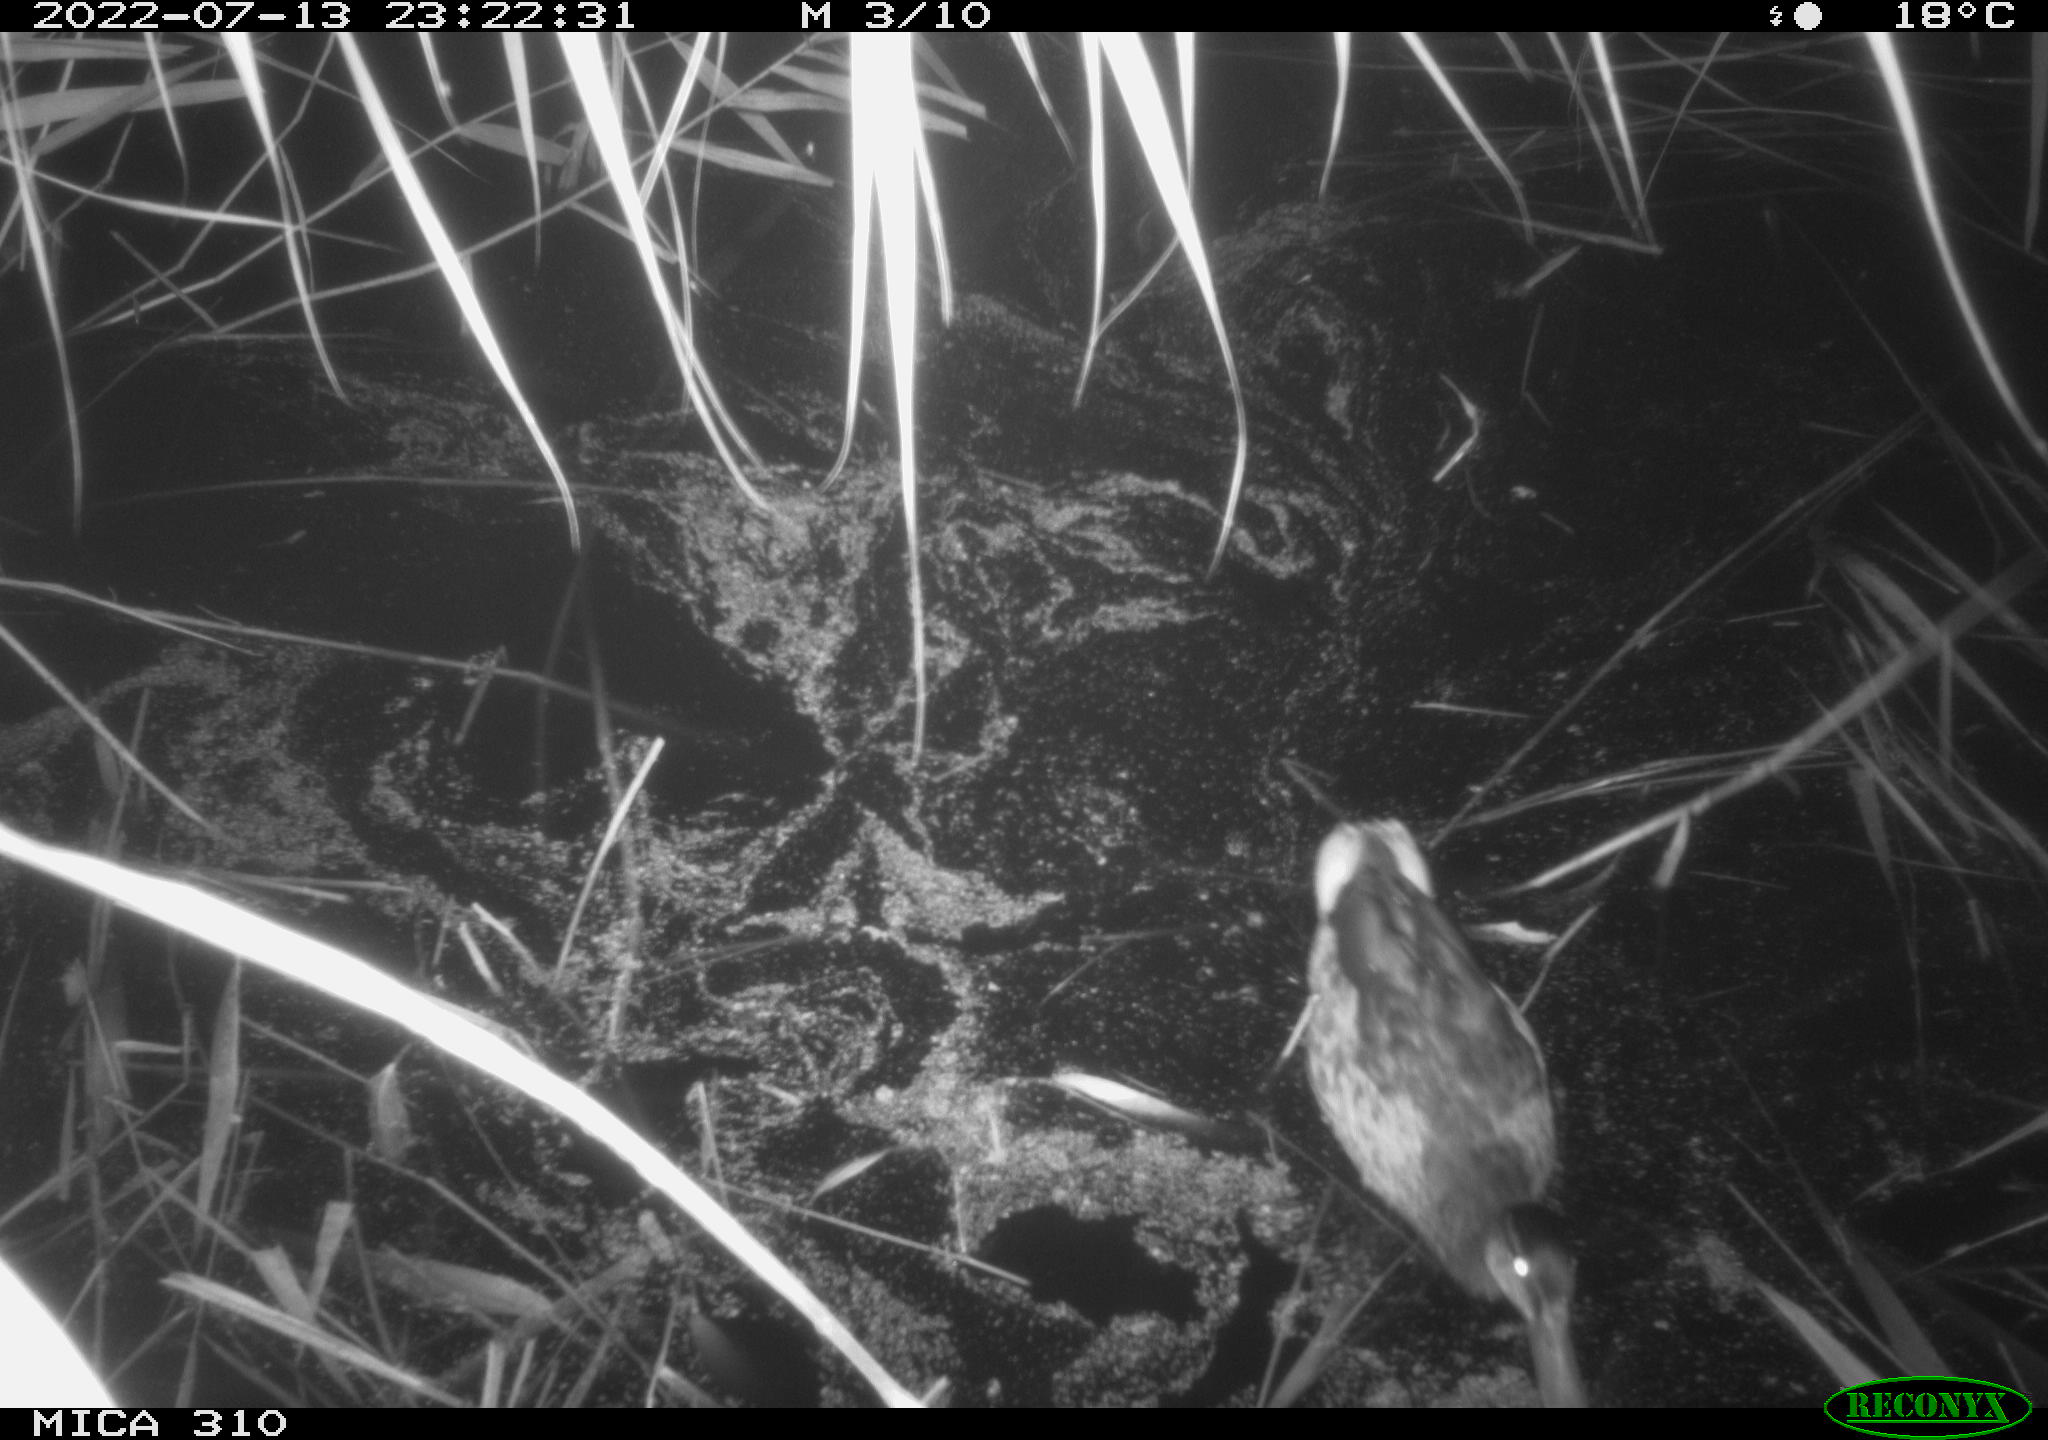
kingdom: Animalia
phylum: Chordata
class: Aves
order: Anseriformes
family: Anatidae
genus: Anas
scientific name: Anas platyrhynchos
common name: Mallard
